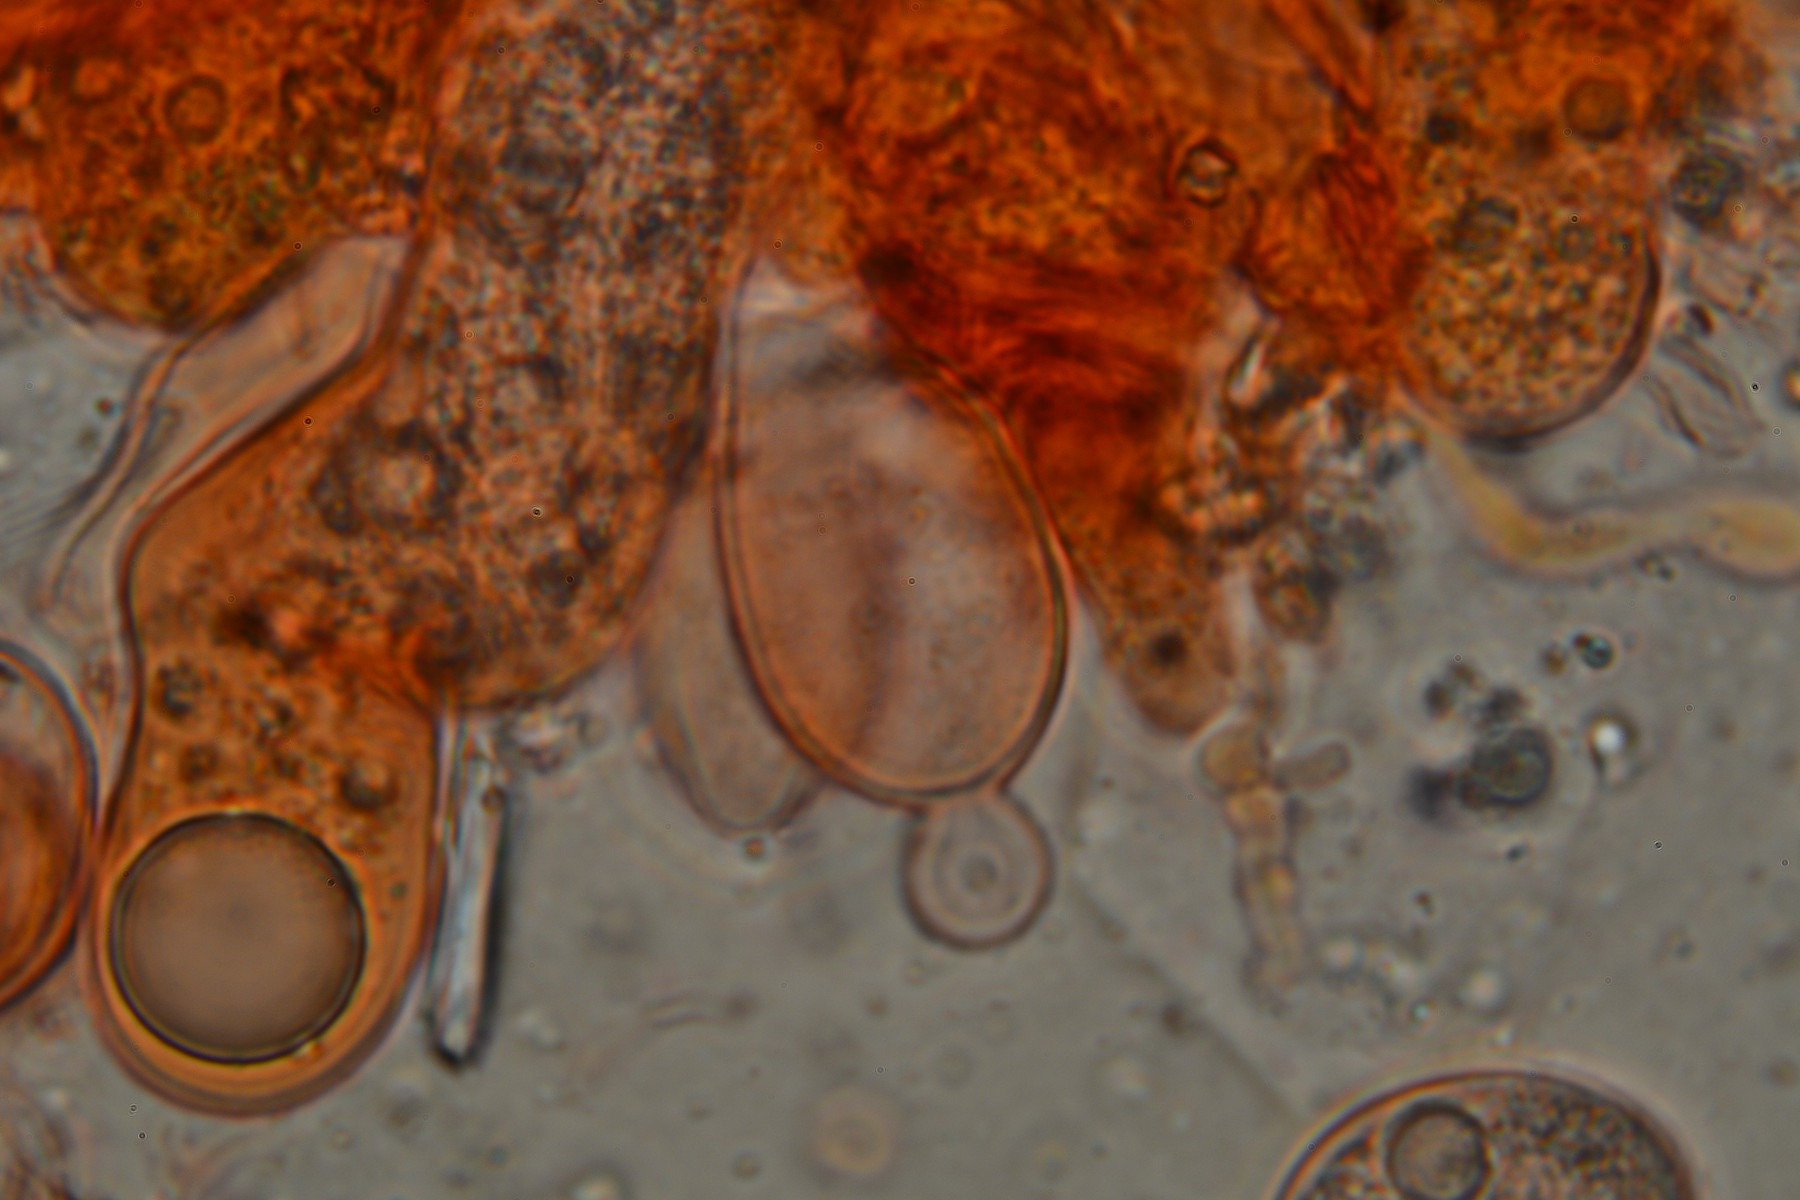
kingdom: Fungi
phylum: Basidiomycota
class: Agaricomycetes
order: Russulales
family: Stereaceae
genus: Aleurodiscus
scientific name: Aleurodiscus aurantius
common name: brombær-skiveskorpe
